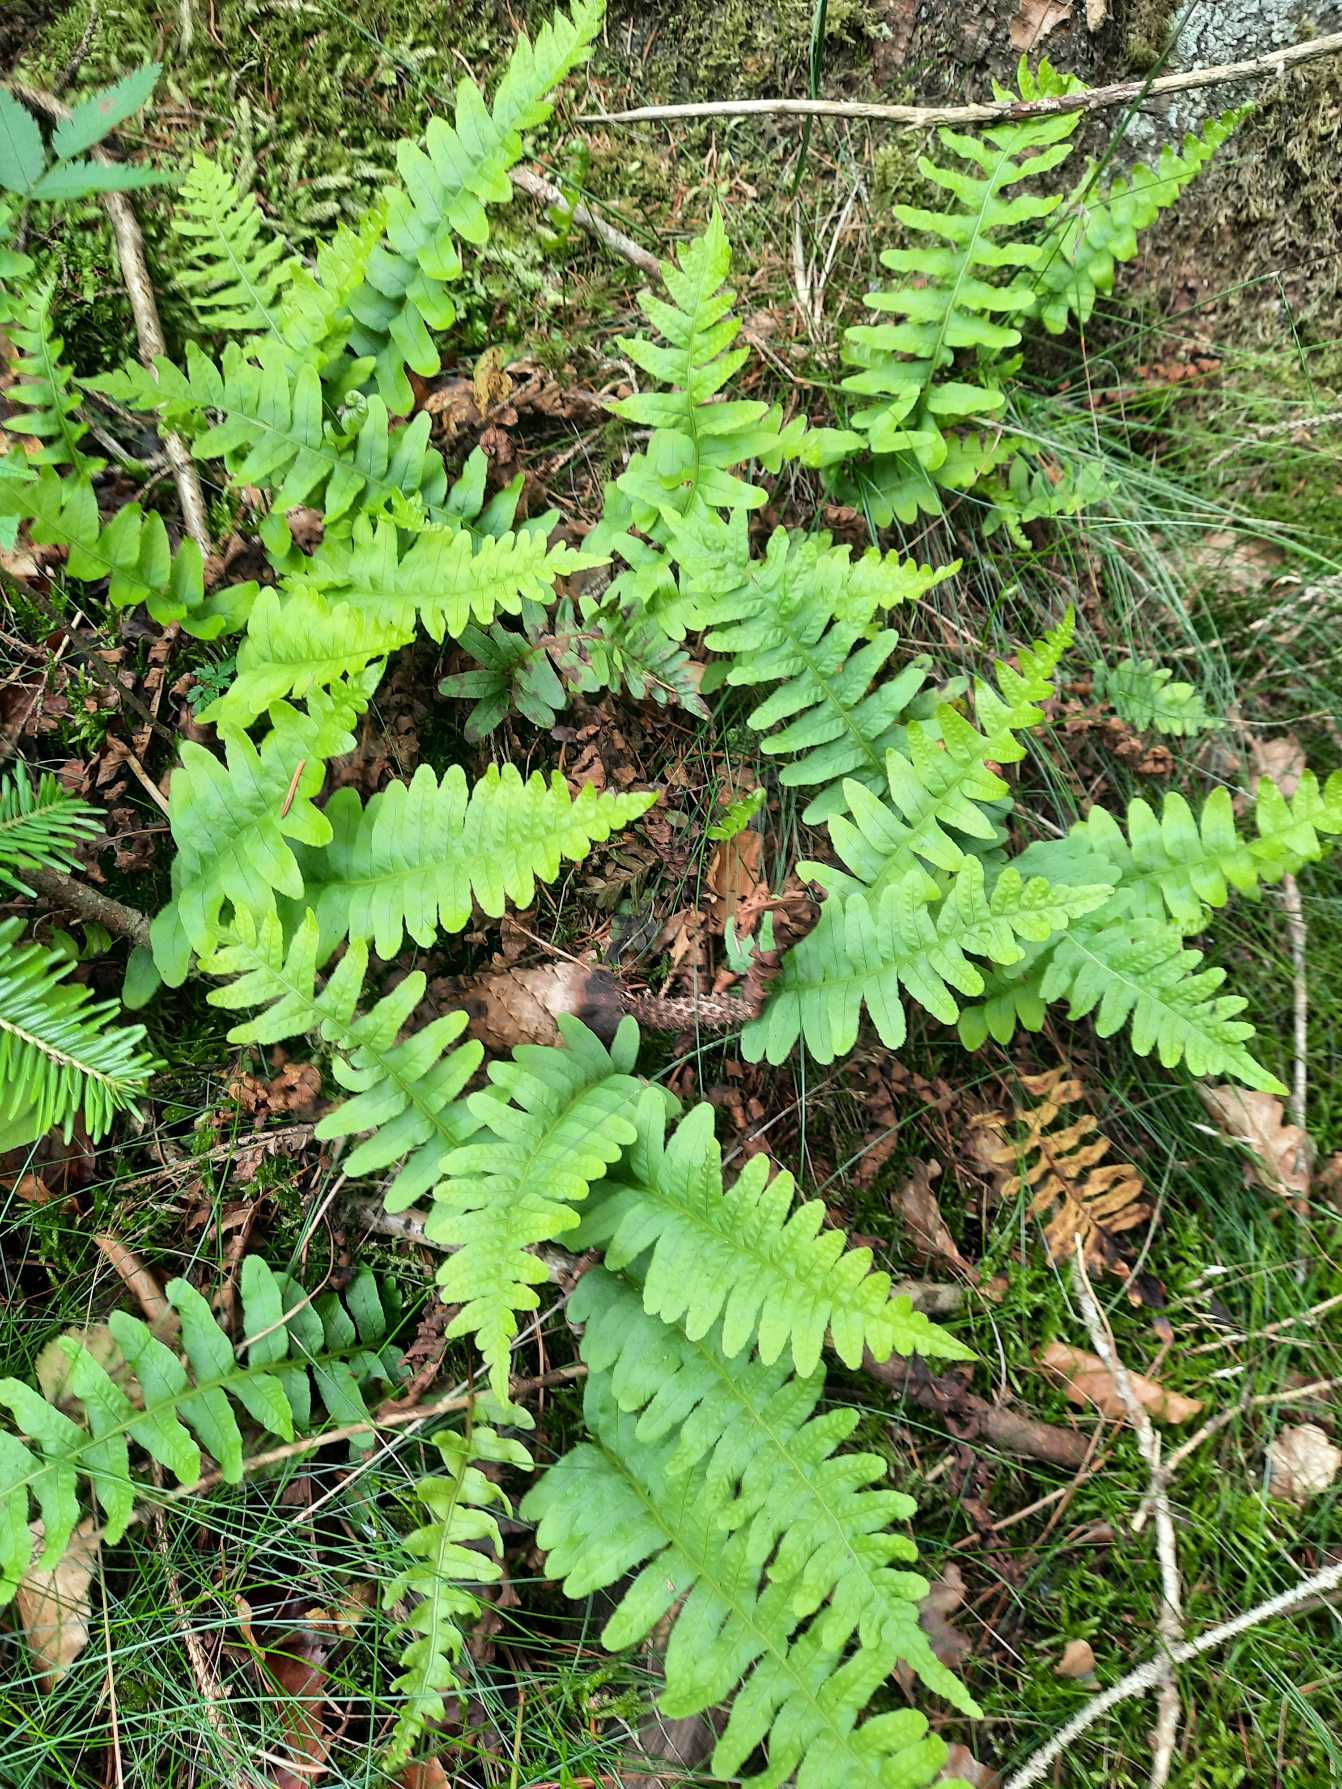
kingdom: Plantae
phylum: Tracheophyta
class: Polypodiopsida
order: Polypodiales
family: Polypodiaceae
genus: Polypodium
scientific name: Polypodium vulgare
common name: Almindelig engelsød
